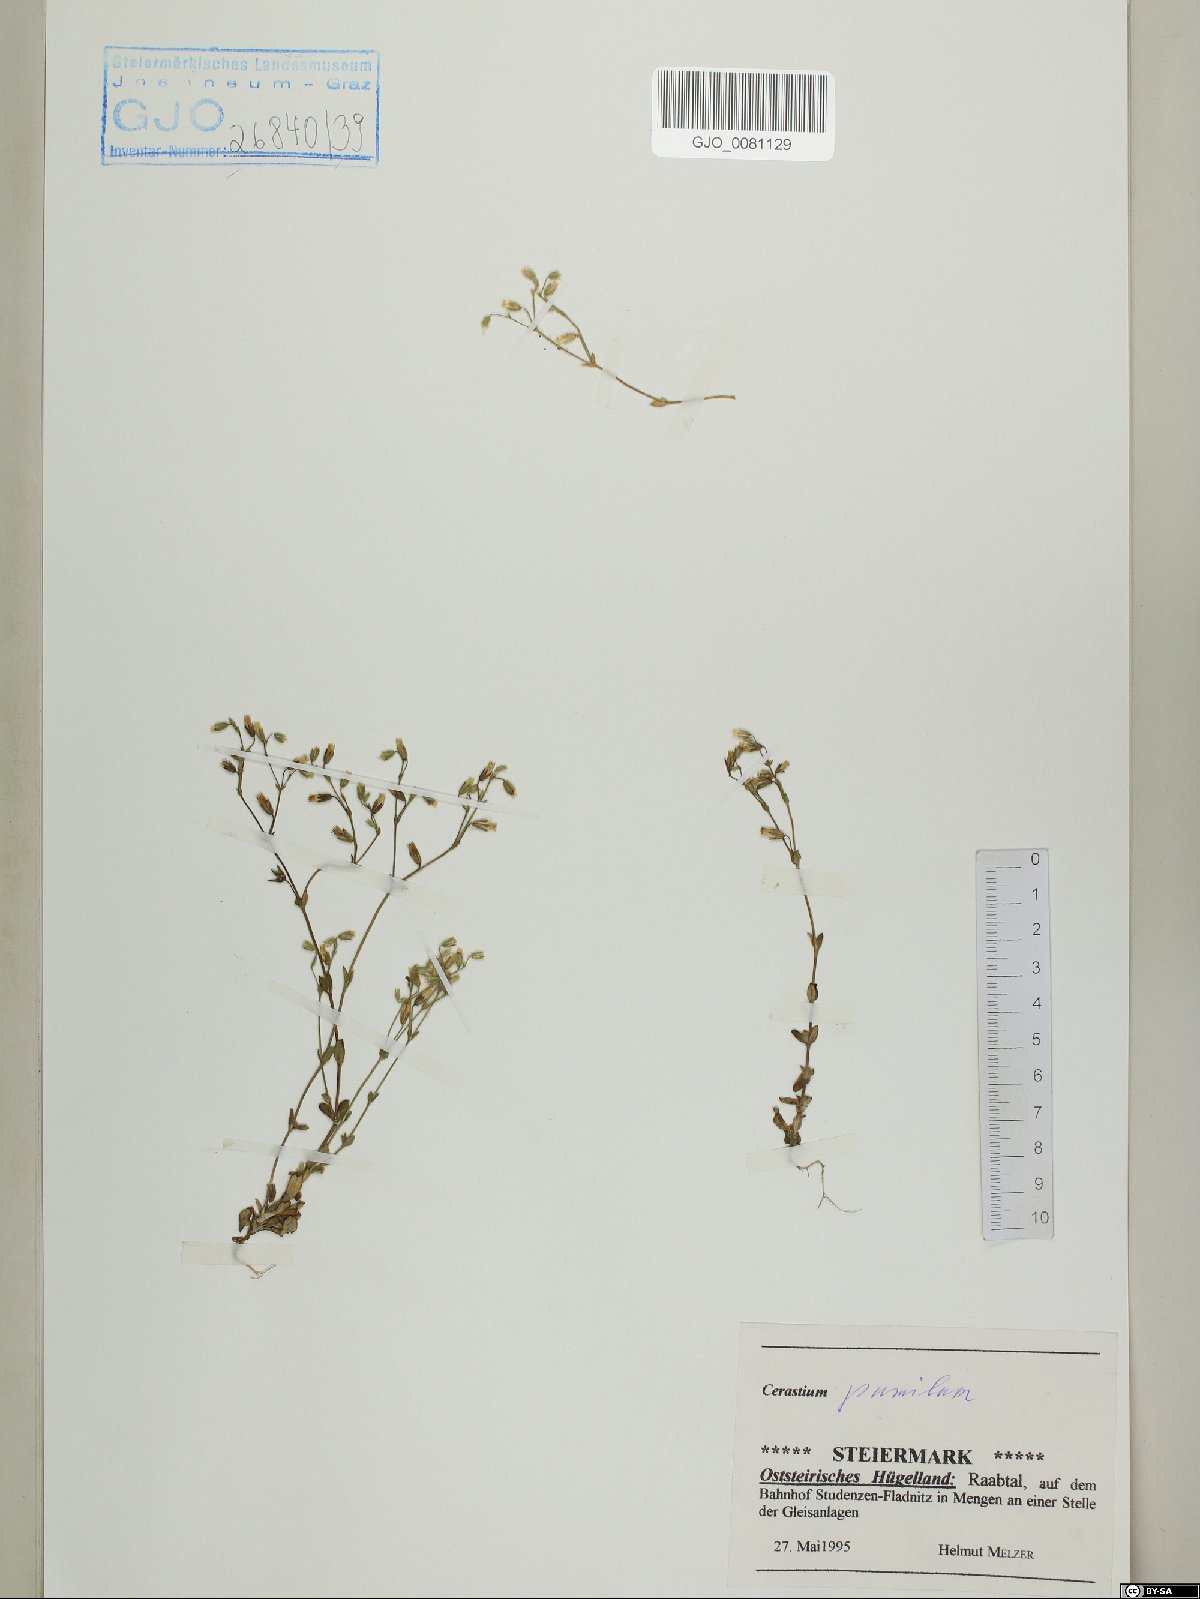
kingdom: Plantae
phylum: Tracheophyta
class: Magnoliopsida
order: Caryophyllales
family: Caryophyllaceae
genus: Cerastium
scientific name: Cerastium pumilum
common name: Dwarf mouse-ear
